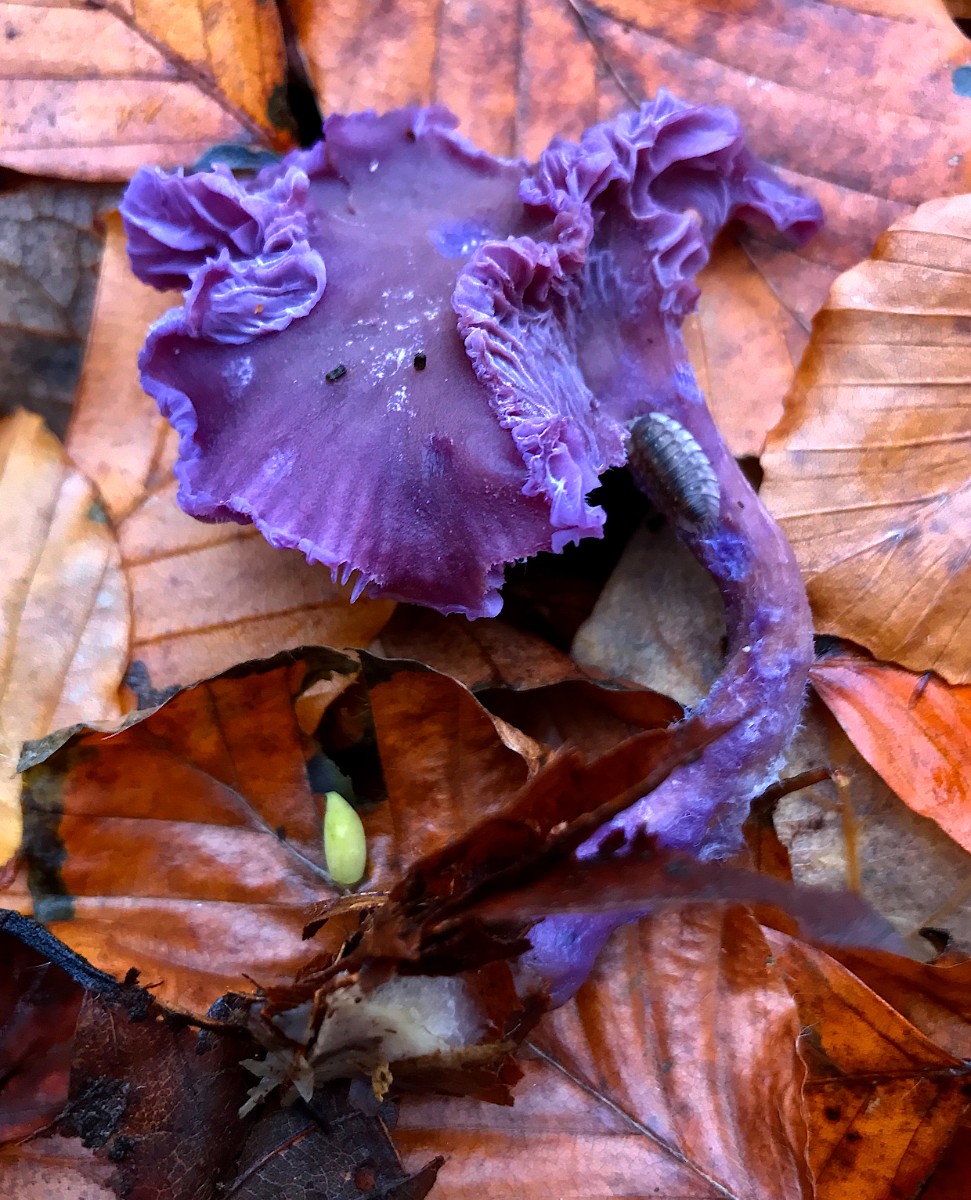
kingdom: Fungi
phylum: Basidiomycota
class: Agaricomycetes
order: Agaricales
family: Hydnangiaceae
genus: Laccaria
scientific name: Laccaria amethystina
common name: violet ametysthat
